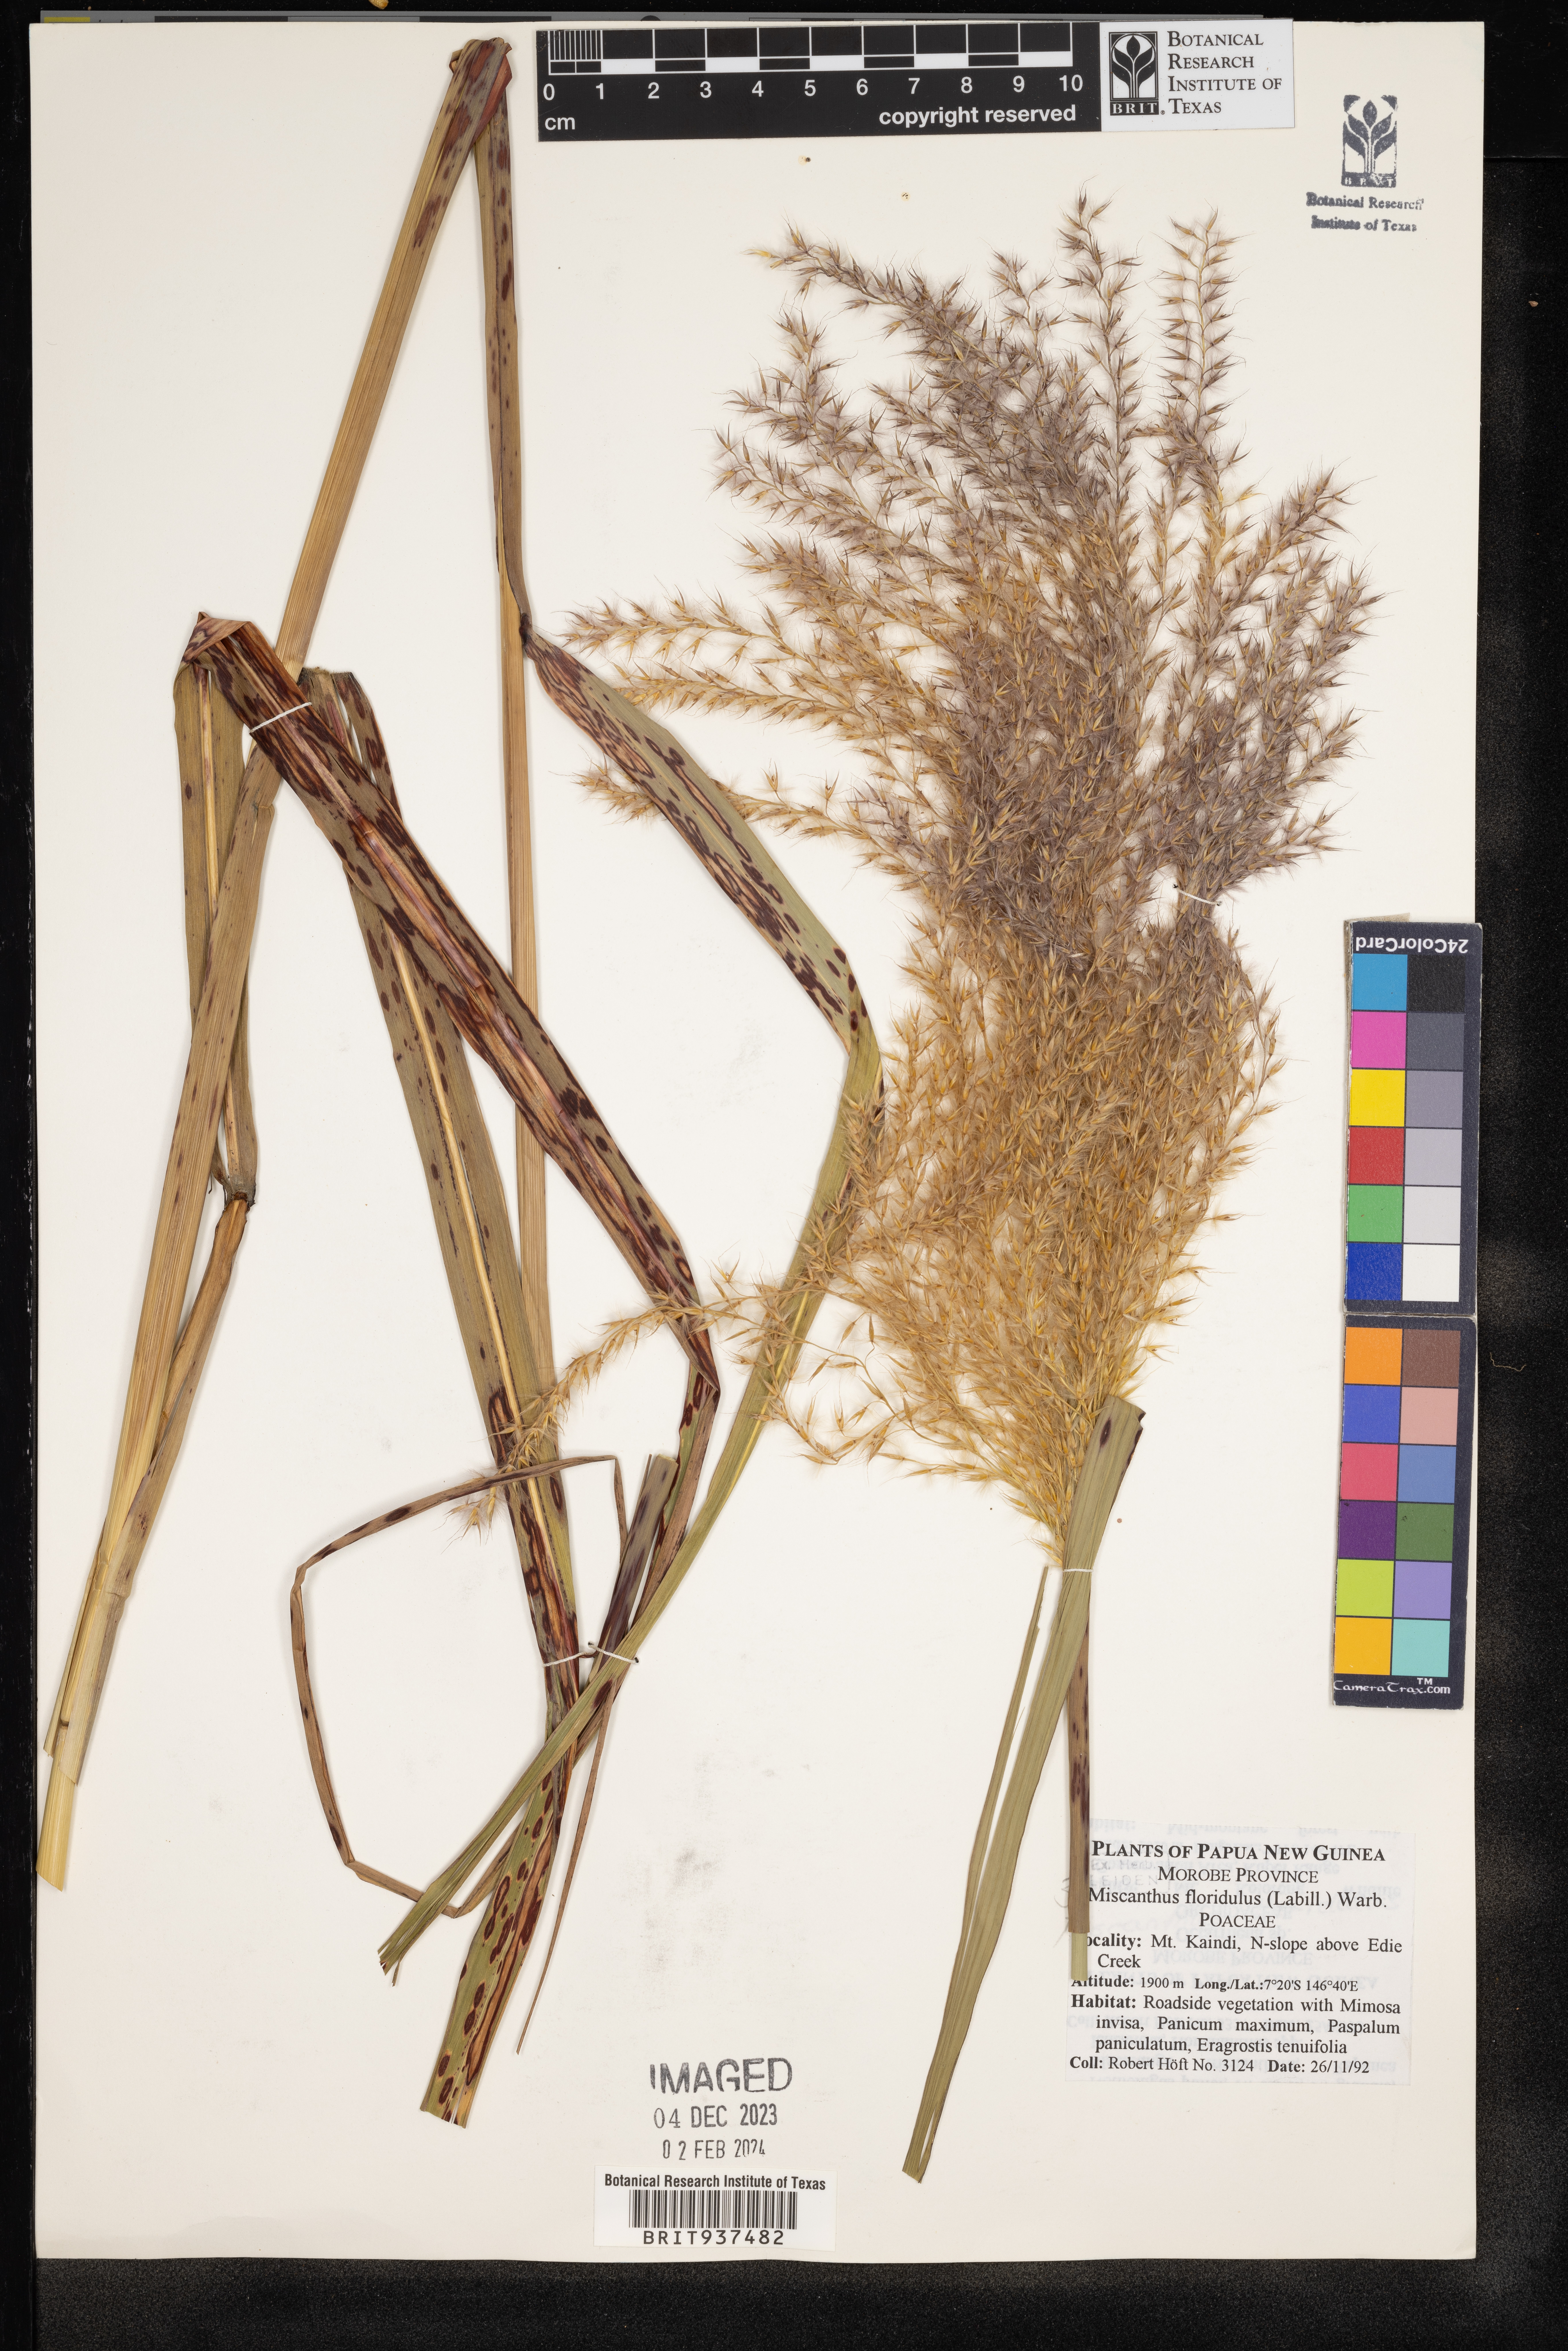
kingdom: Plantae
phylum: Tracheophyta
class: Liliopsida
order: Poales
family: Poaceae
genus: Miscanthus
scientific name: Miscanthus
